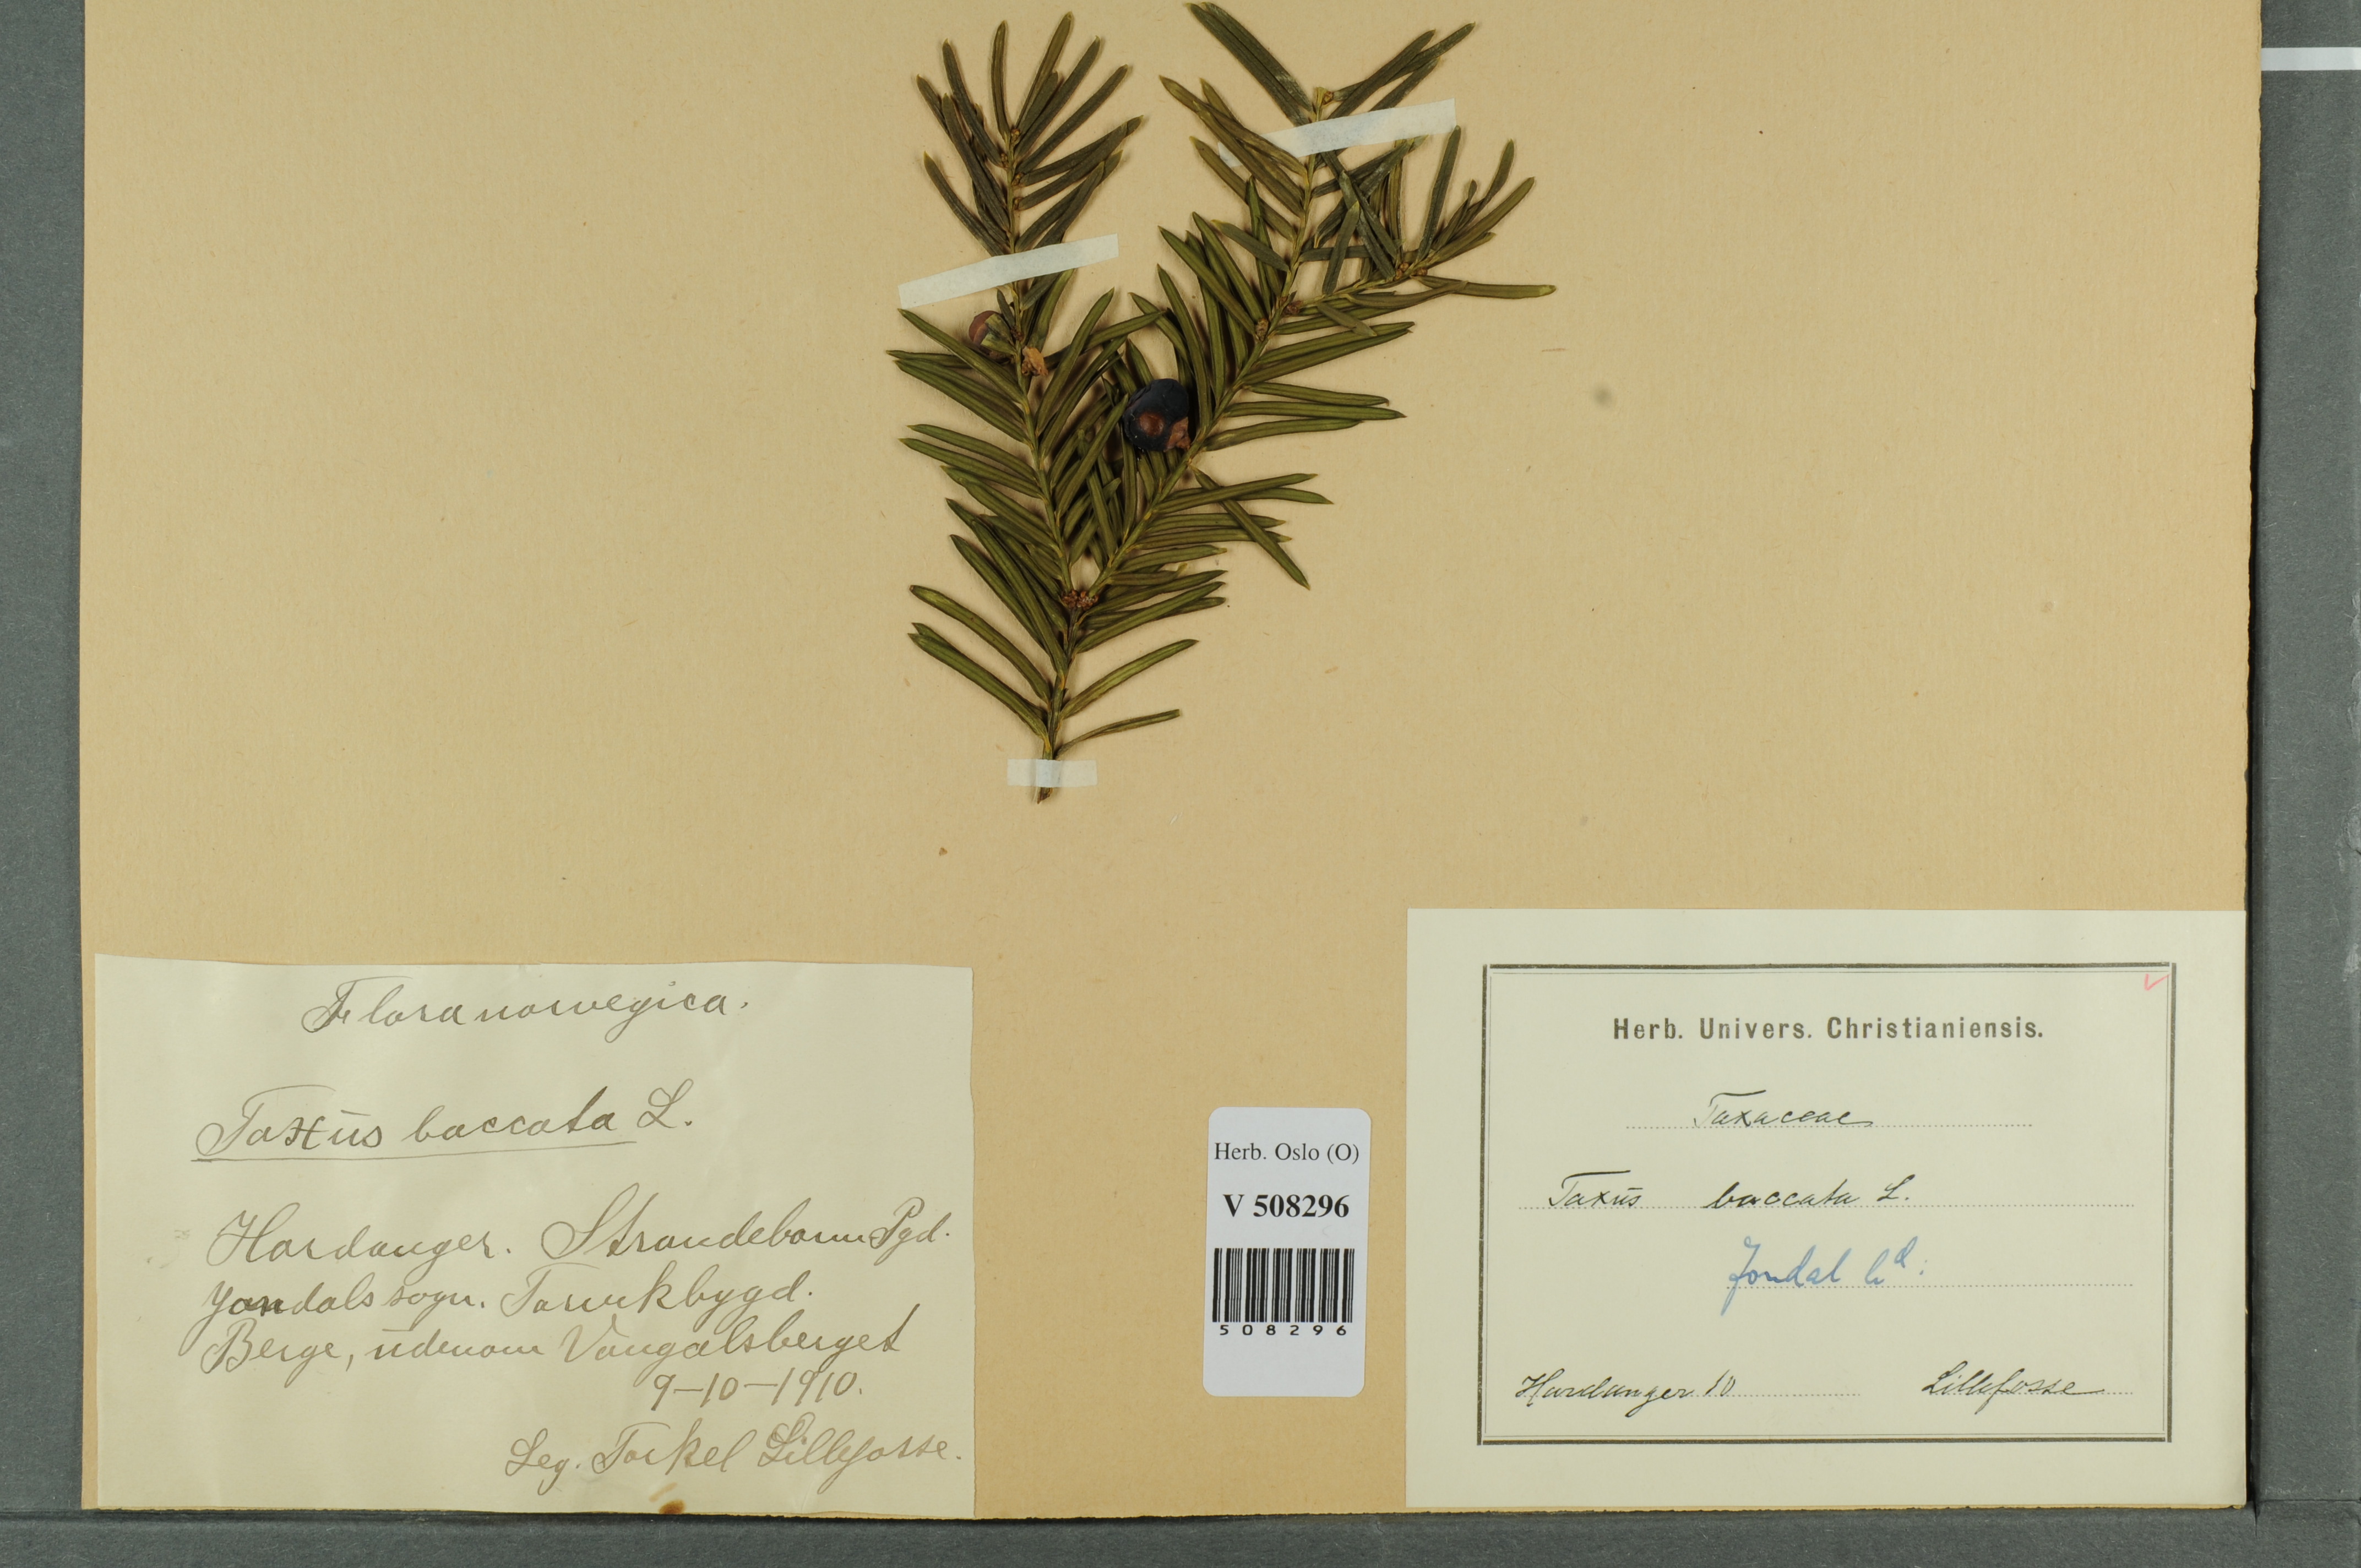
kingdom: Plantae
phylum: Tracheophyta
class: Pinopsida
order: Pinales
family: Taxaceae
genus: Taxus
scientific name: Taxus baccata
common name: Yew
